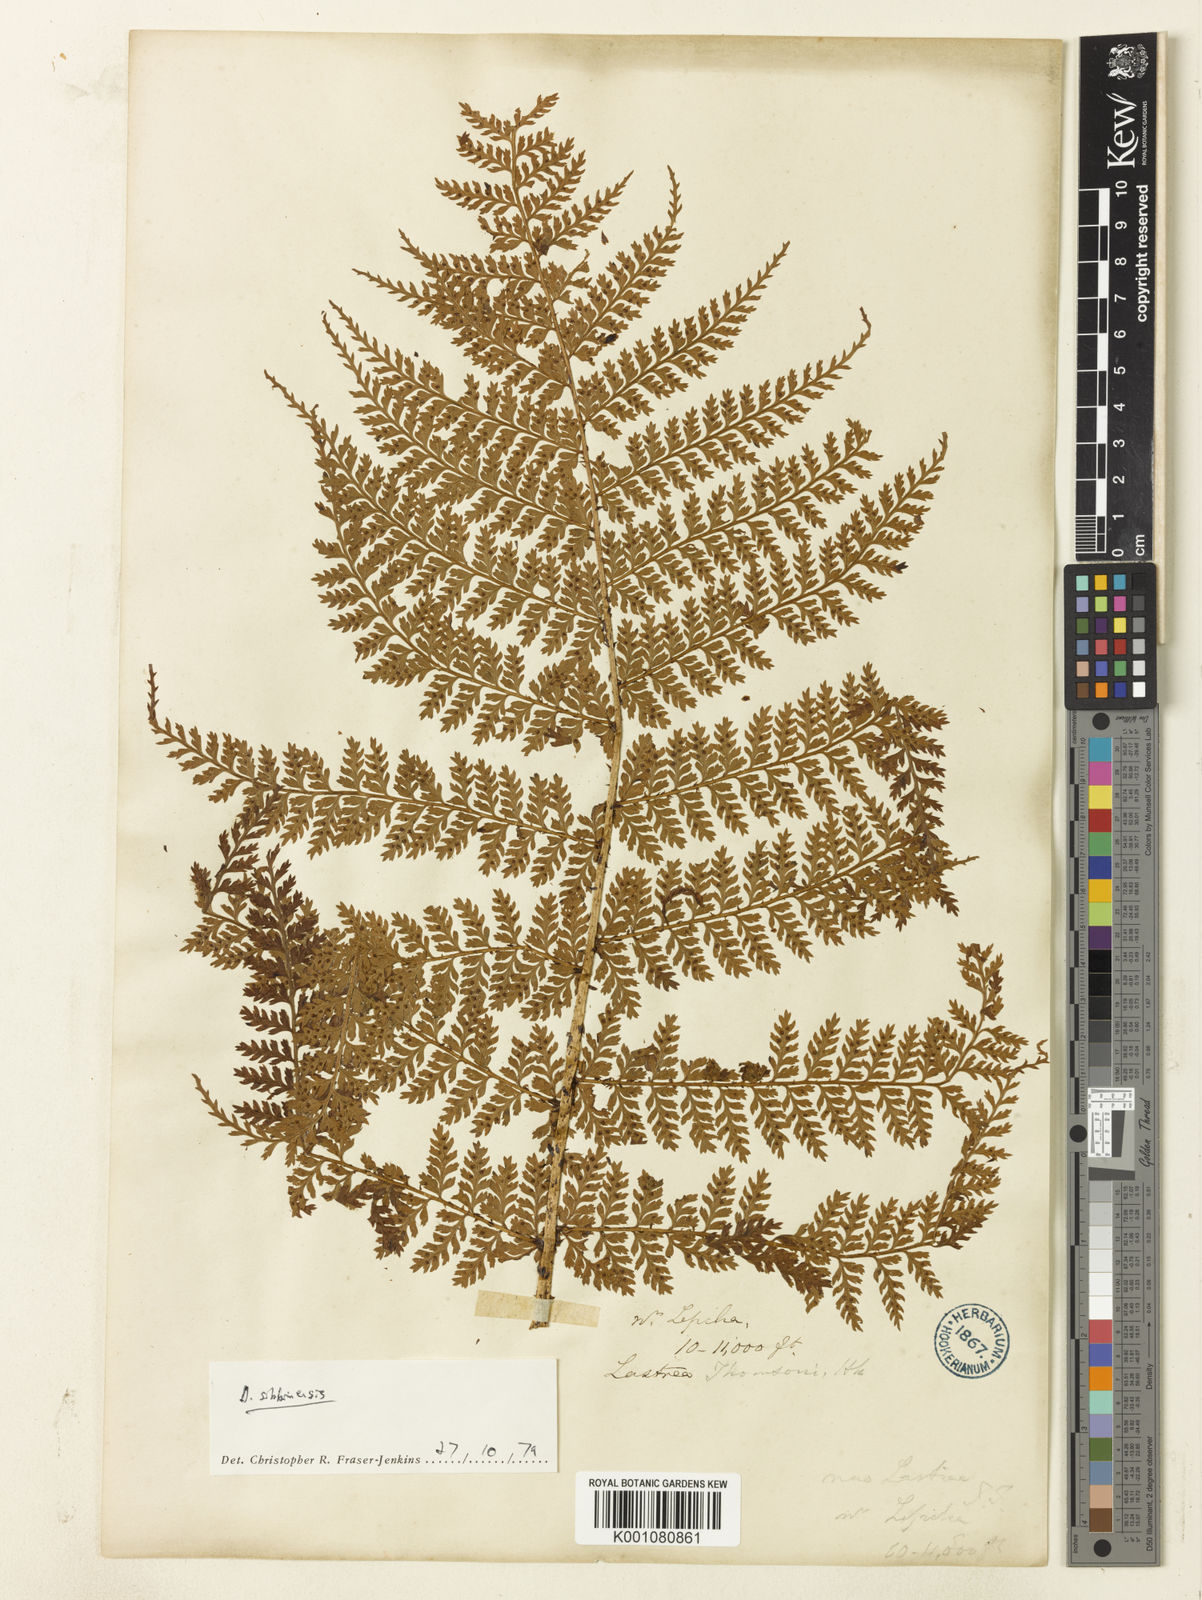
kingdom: Plantae
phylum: Tracheophyta
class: Polypodiopsida
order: Polypodiales
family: Dryopteridaceae
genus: Dryopteris
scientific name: Dryopteris sikkimensis
